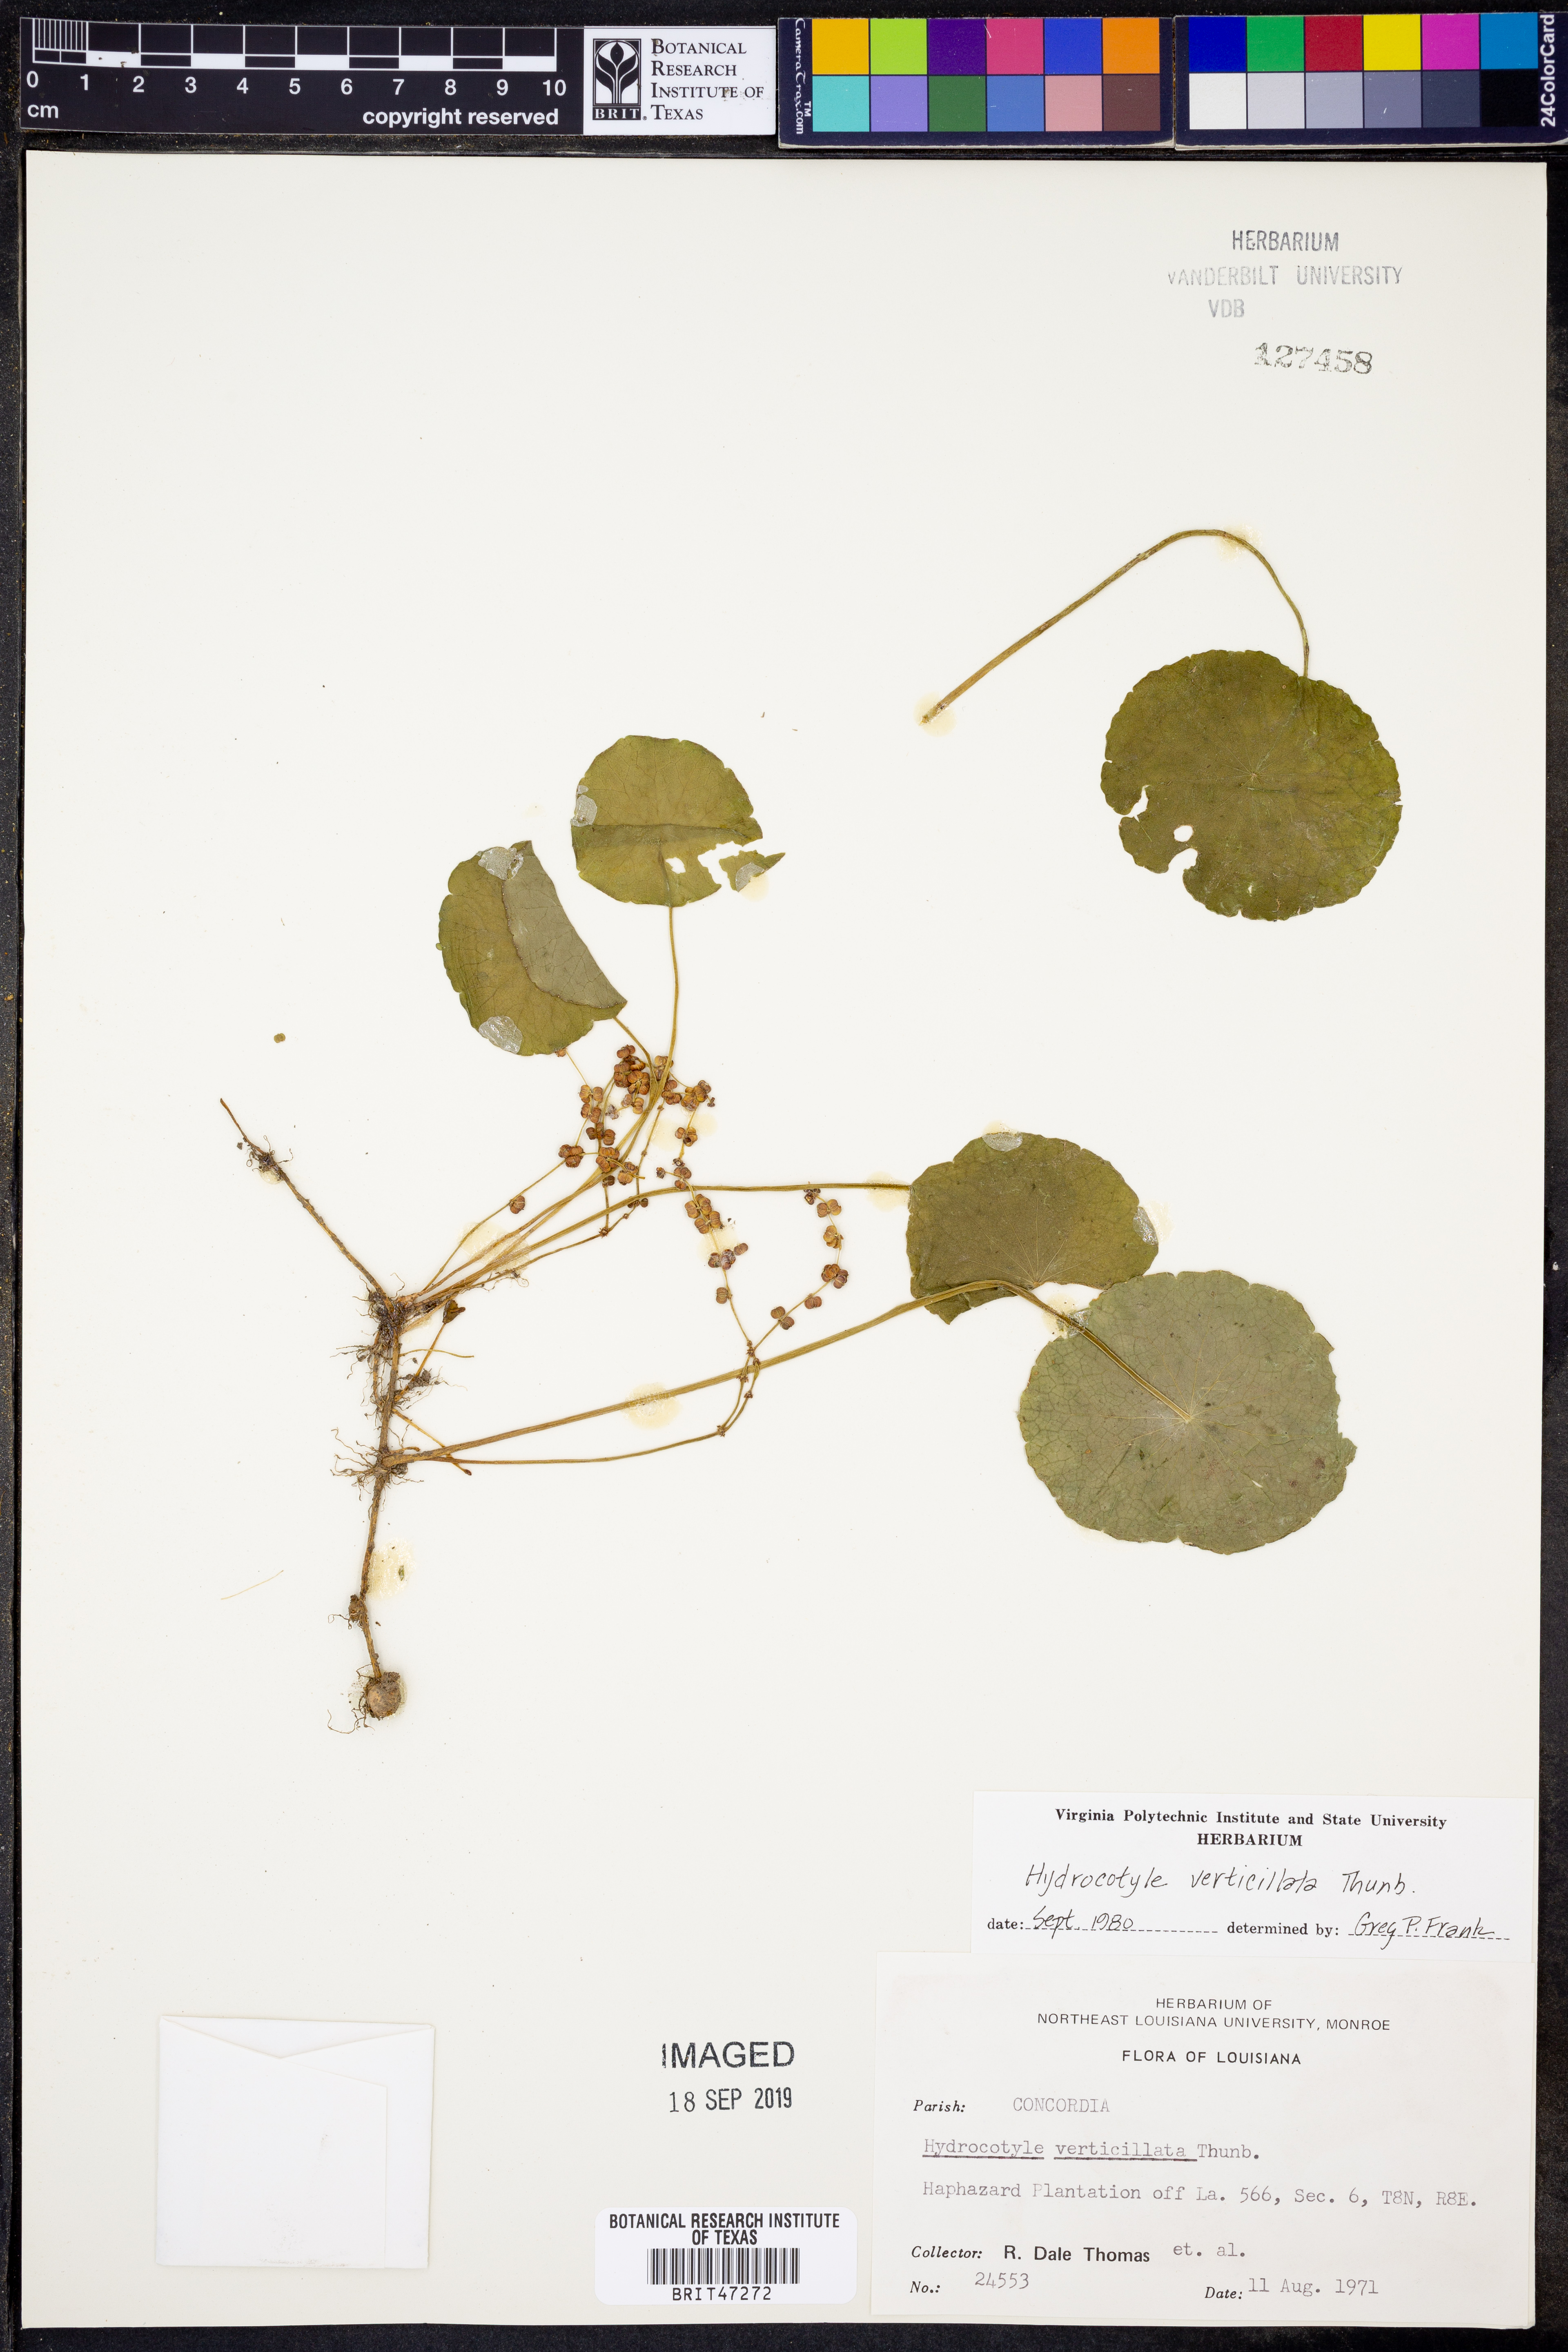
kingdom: Plantae
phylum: Tracheophyta
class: Magnoliopsida
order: Apiales
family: Araliaceae
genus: Hydrocotyle
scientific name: Hydrocotyle verticillata
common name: Whorled marshpennywort
